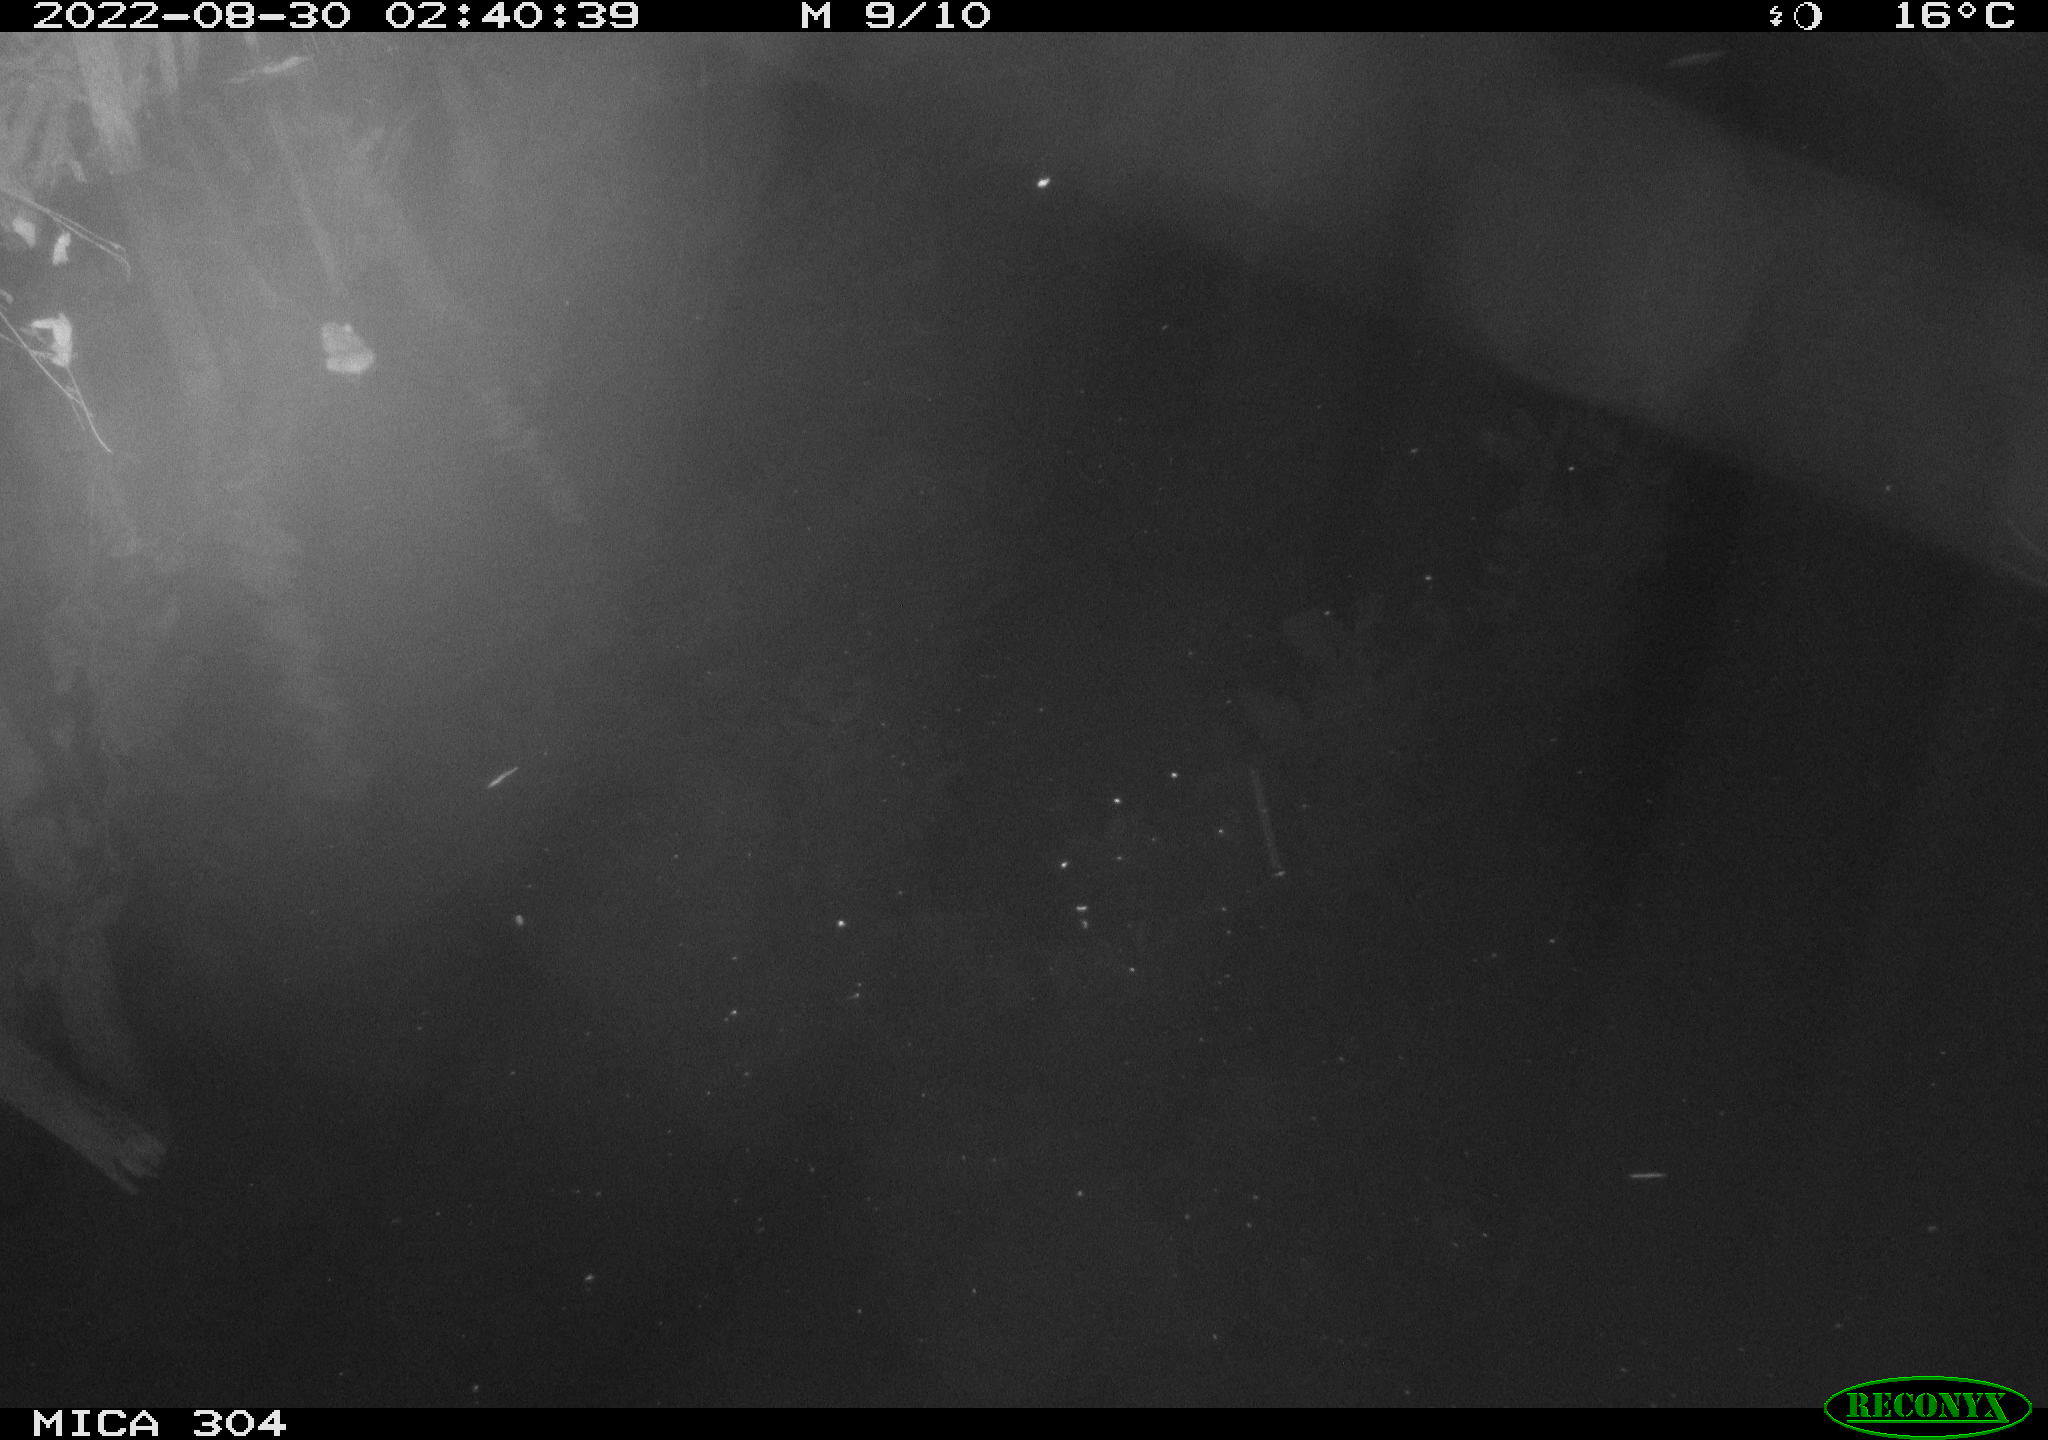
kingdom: Animalia
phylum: Chordata
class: Mammalia
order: Rodentia
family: Muridae
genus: Rattus
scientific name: Rattus norvegicus
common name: Brown rat
